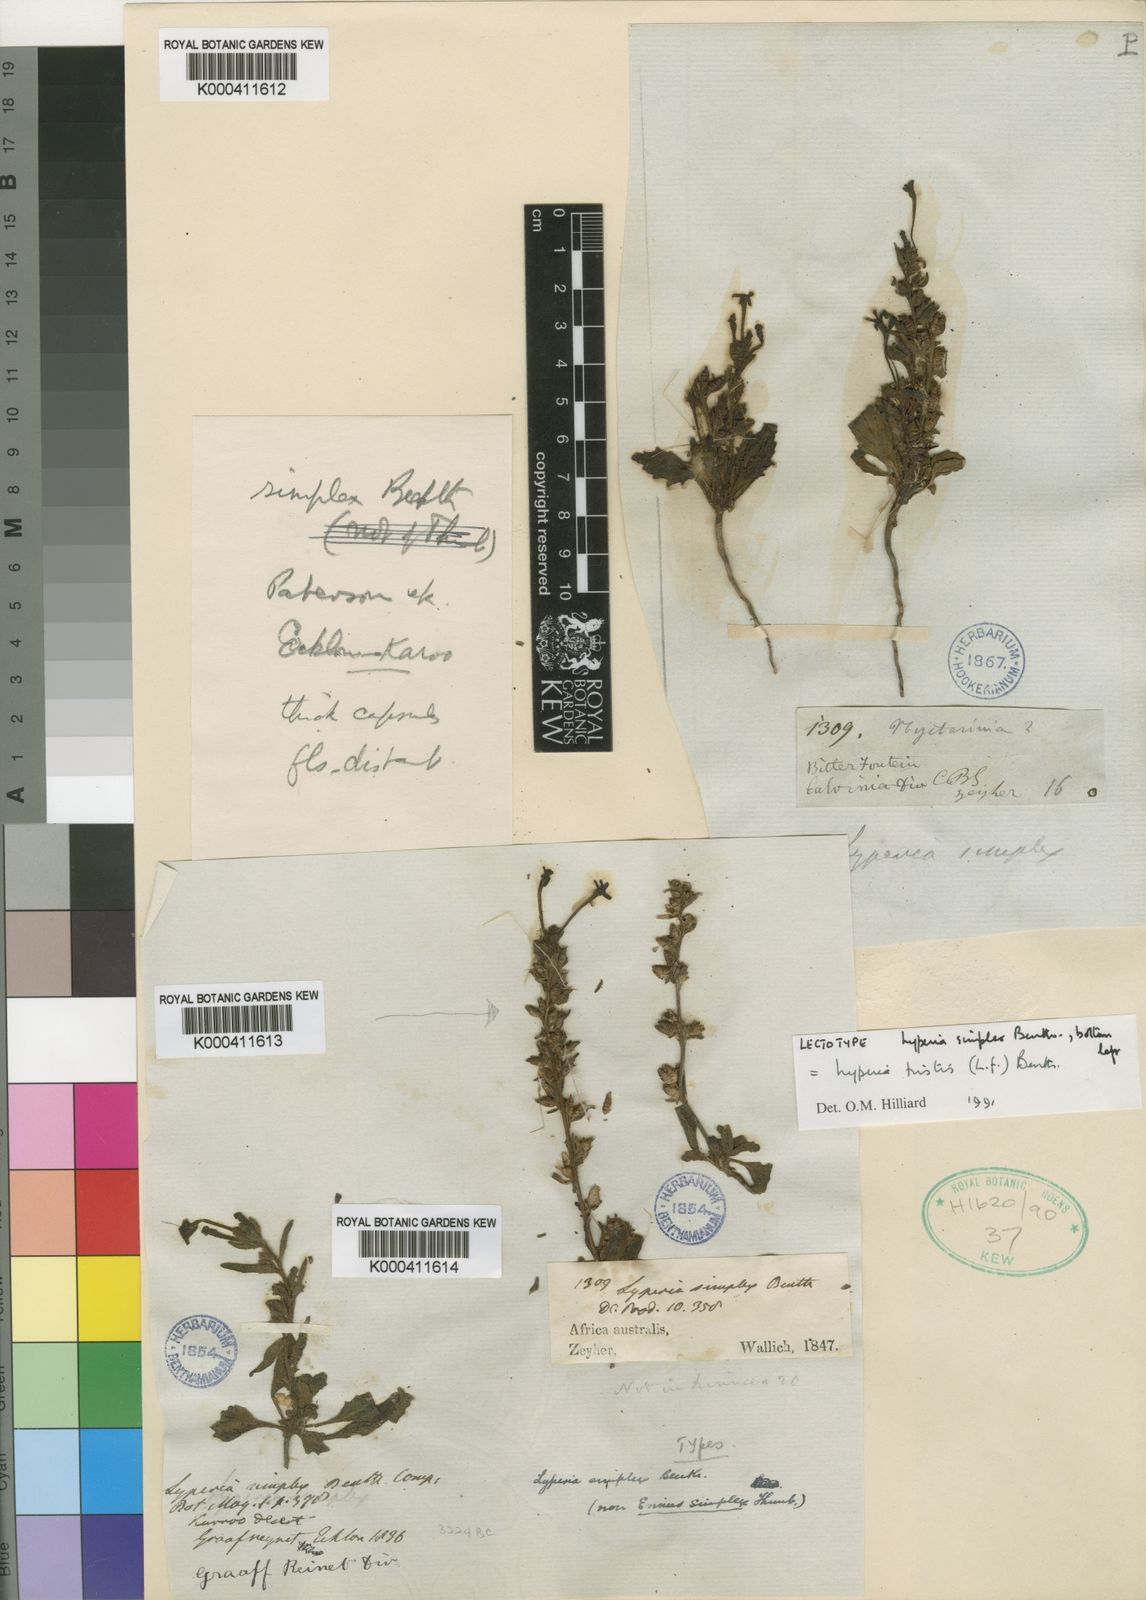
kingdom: Plantae
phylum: Tracheophyta
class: Magnoliopsida
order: Lamiales
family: Scrophulariaceae
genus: Lyperia
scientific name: Lyperia tristis
